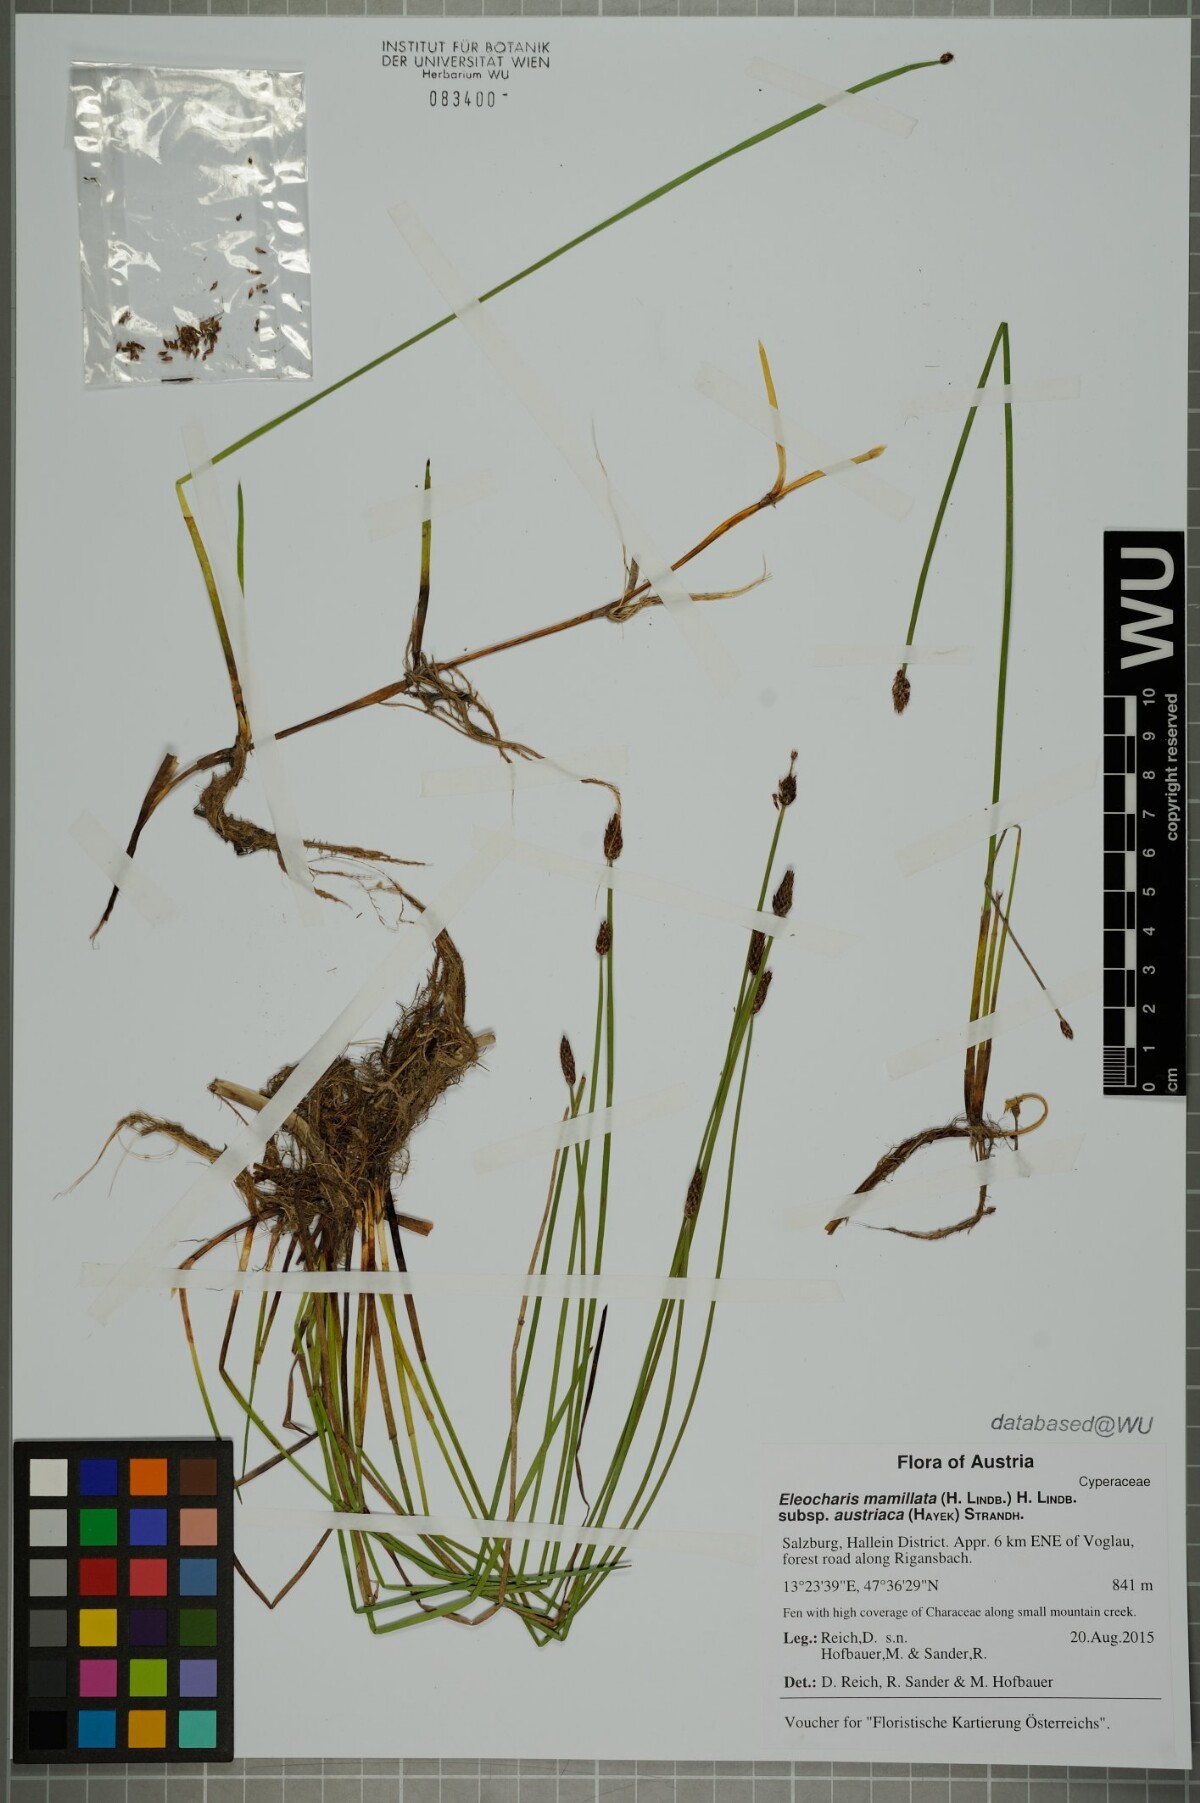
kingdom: Plantae
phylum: Tracheophyta
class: Liliopsida
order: Poales
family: Cyperaceae
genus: Eleocharis
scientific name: Eleocharis mamillata
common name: Northern spike-rush
